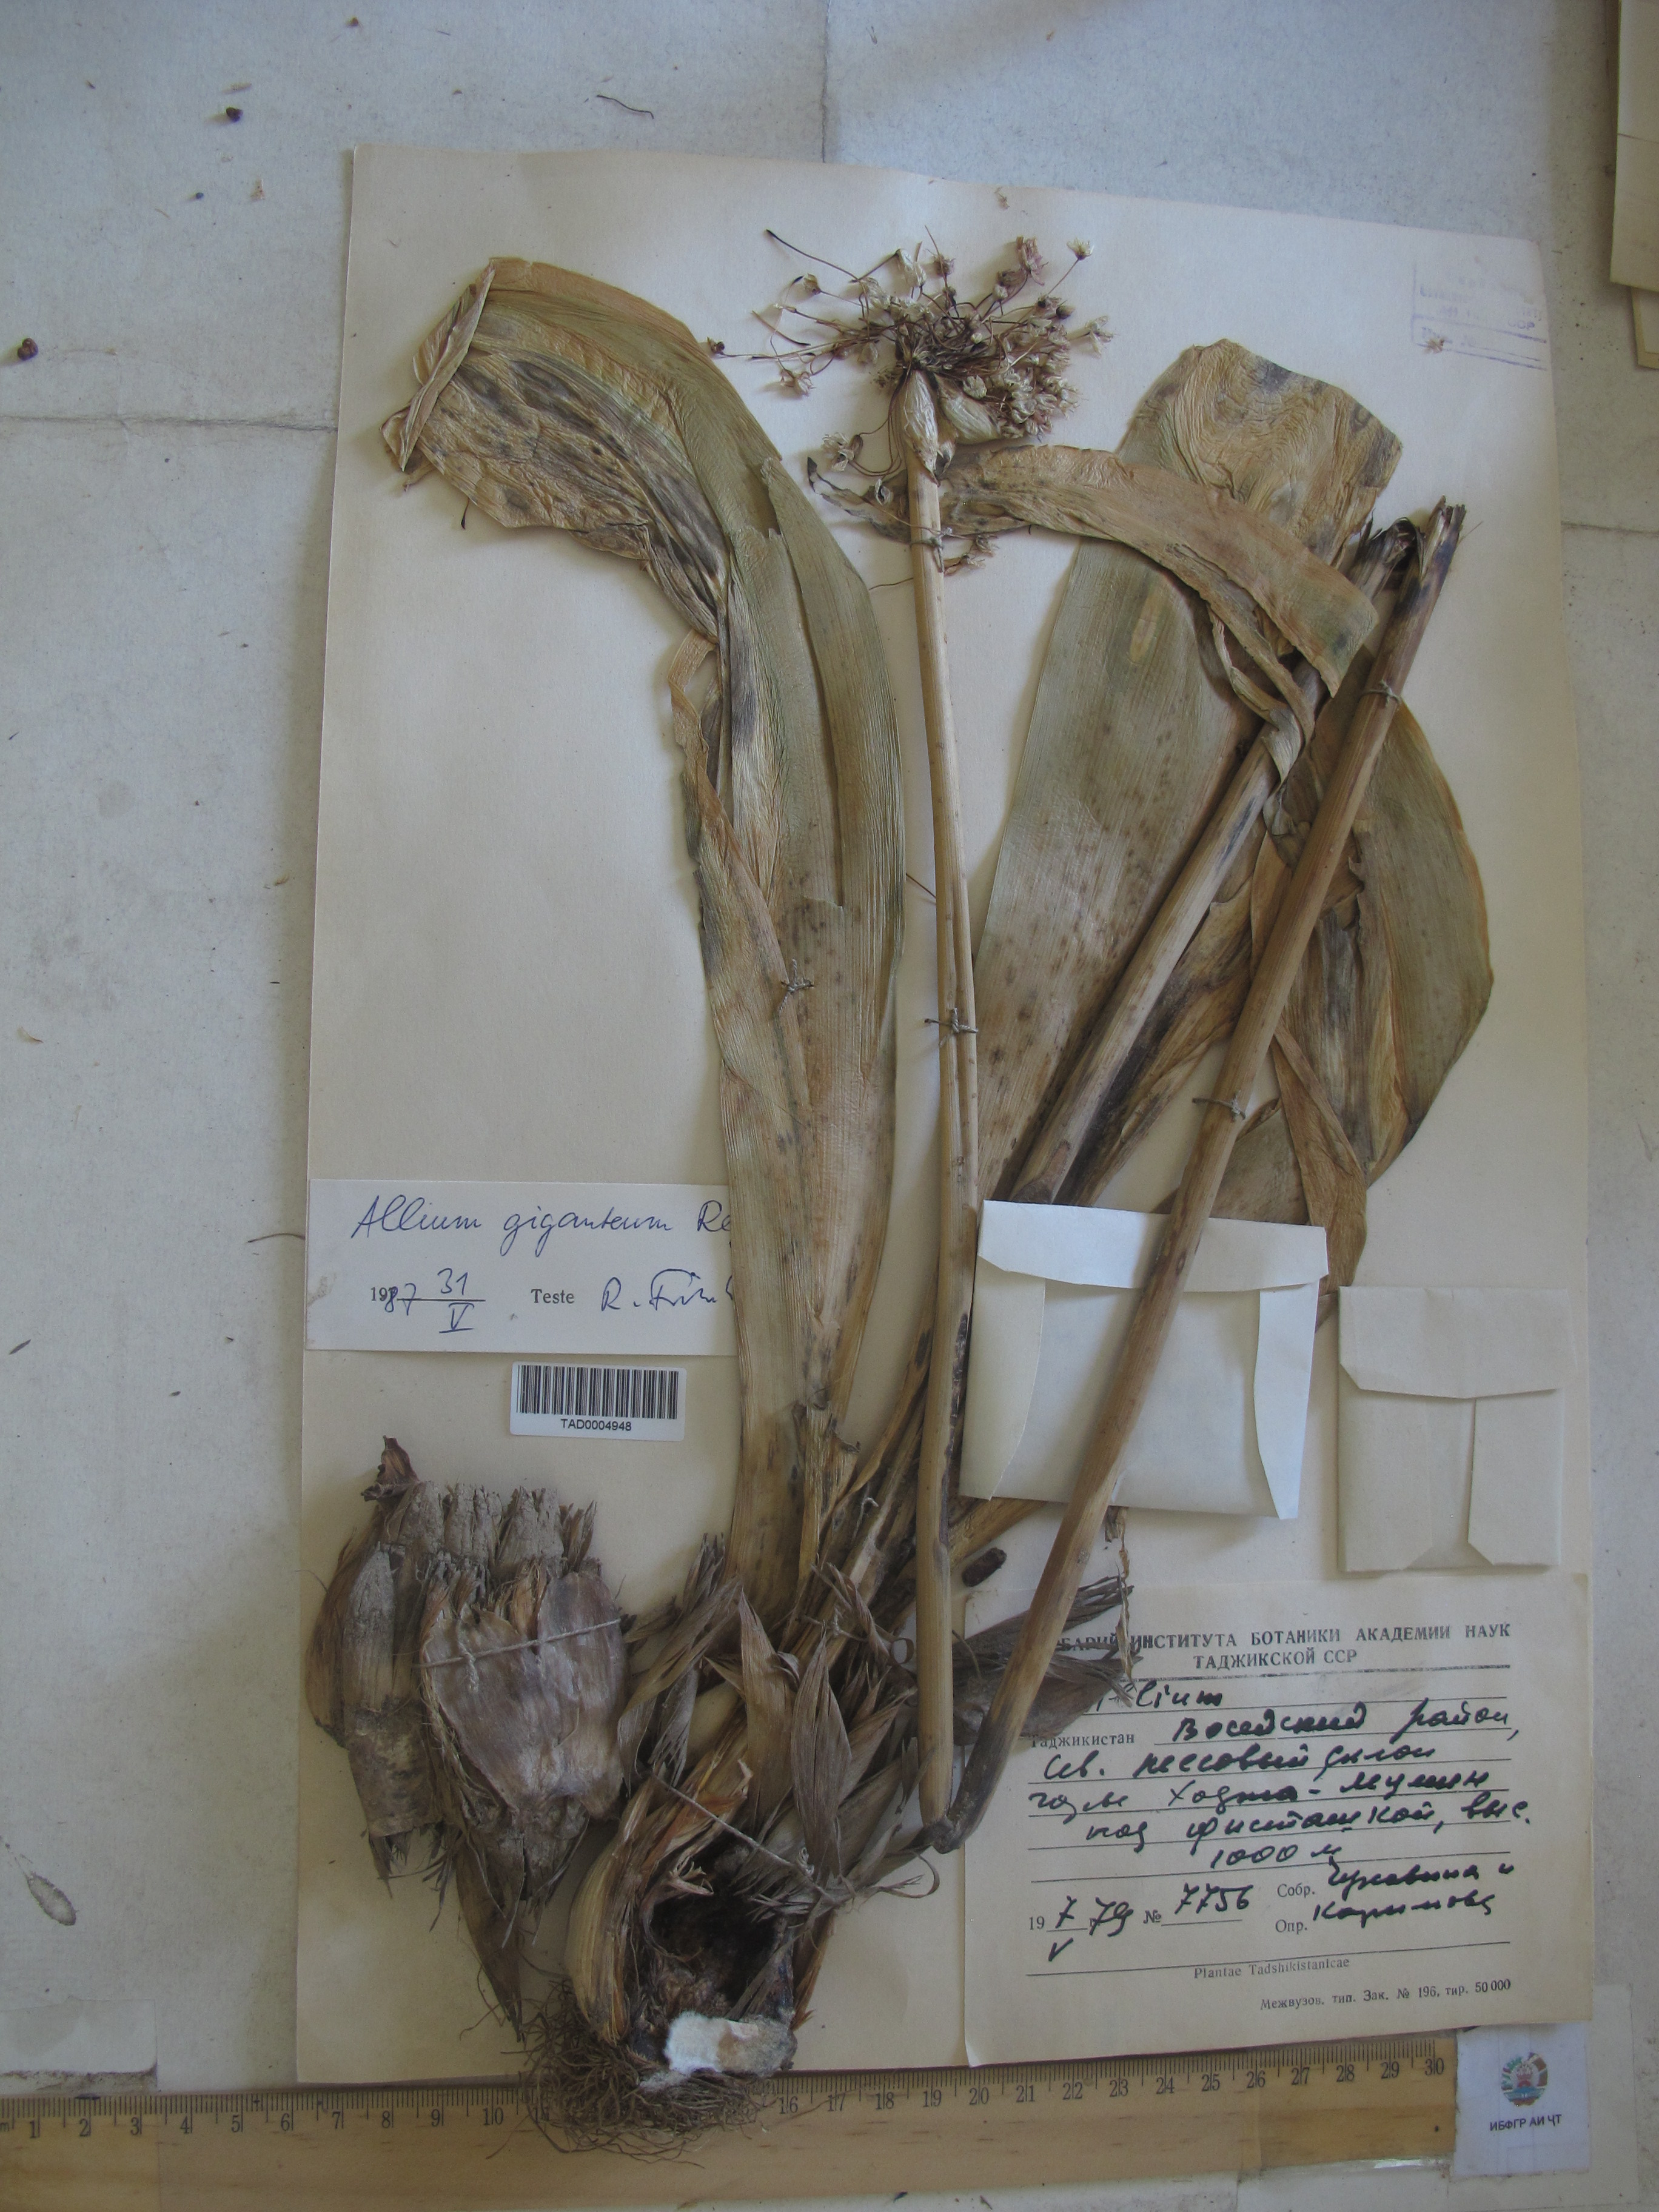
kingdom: Plantae
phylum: Tracheophyta
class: Liliopsida
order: Asparagales
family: Amaryllidaceae
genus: Allium
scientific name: Allium giganteum
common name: Giant onion
